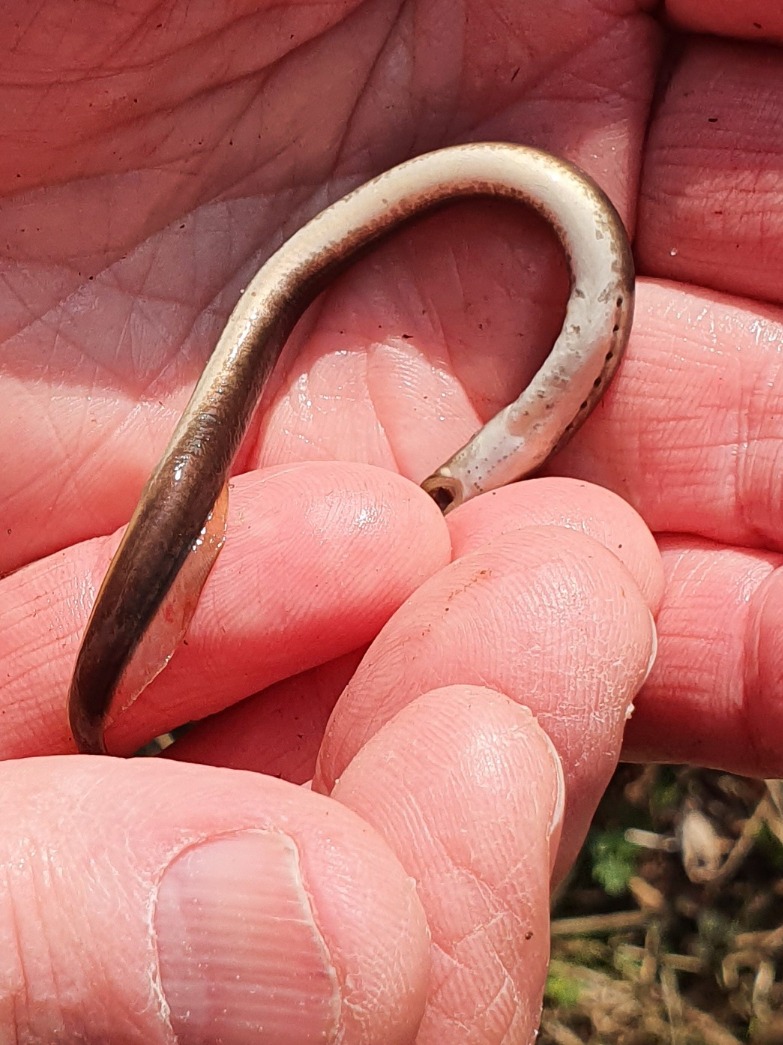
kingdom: Animalia
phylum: Chordata
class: Petromyzonti
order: Petromyzontiformes
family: Petromyzontidae
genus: Lampetra
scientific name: Lampetra planeri
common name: Bæklampret
